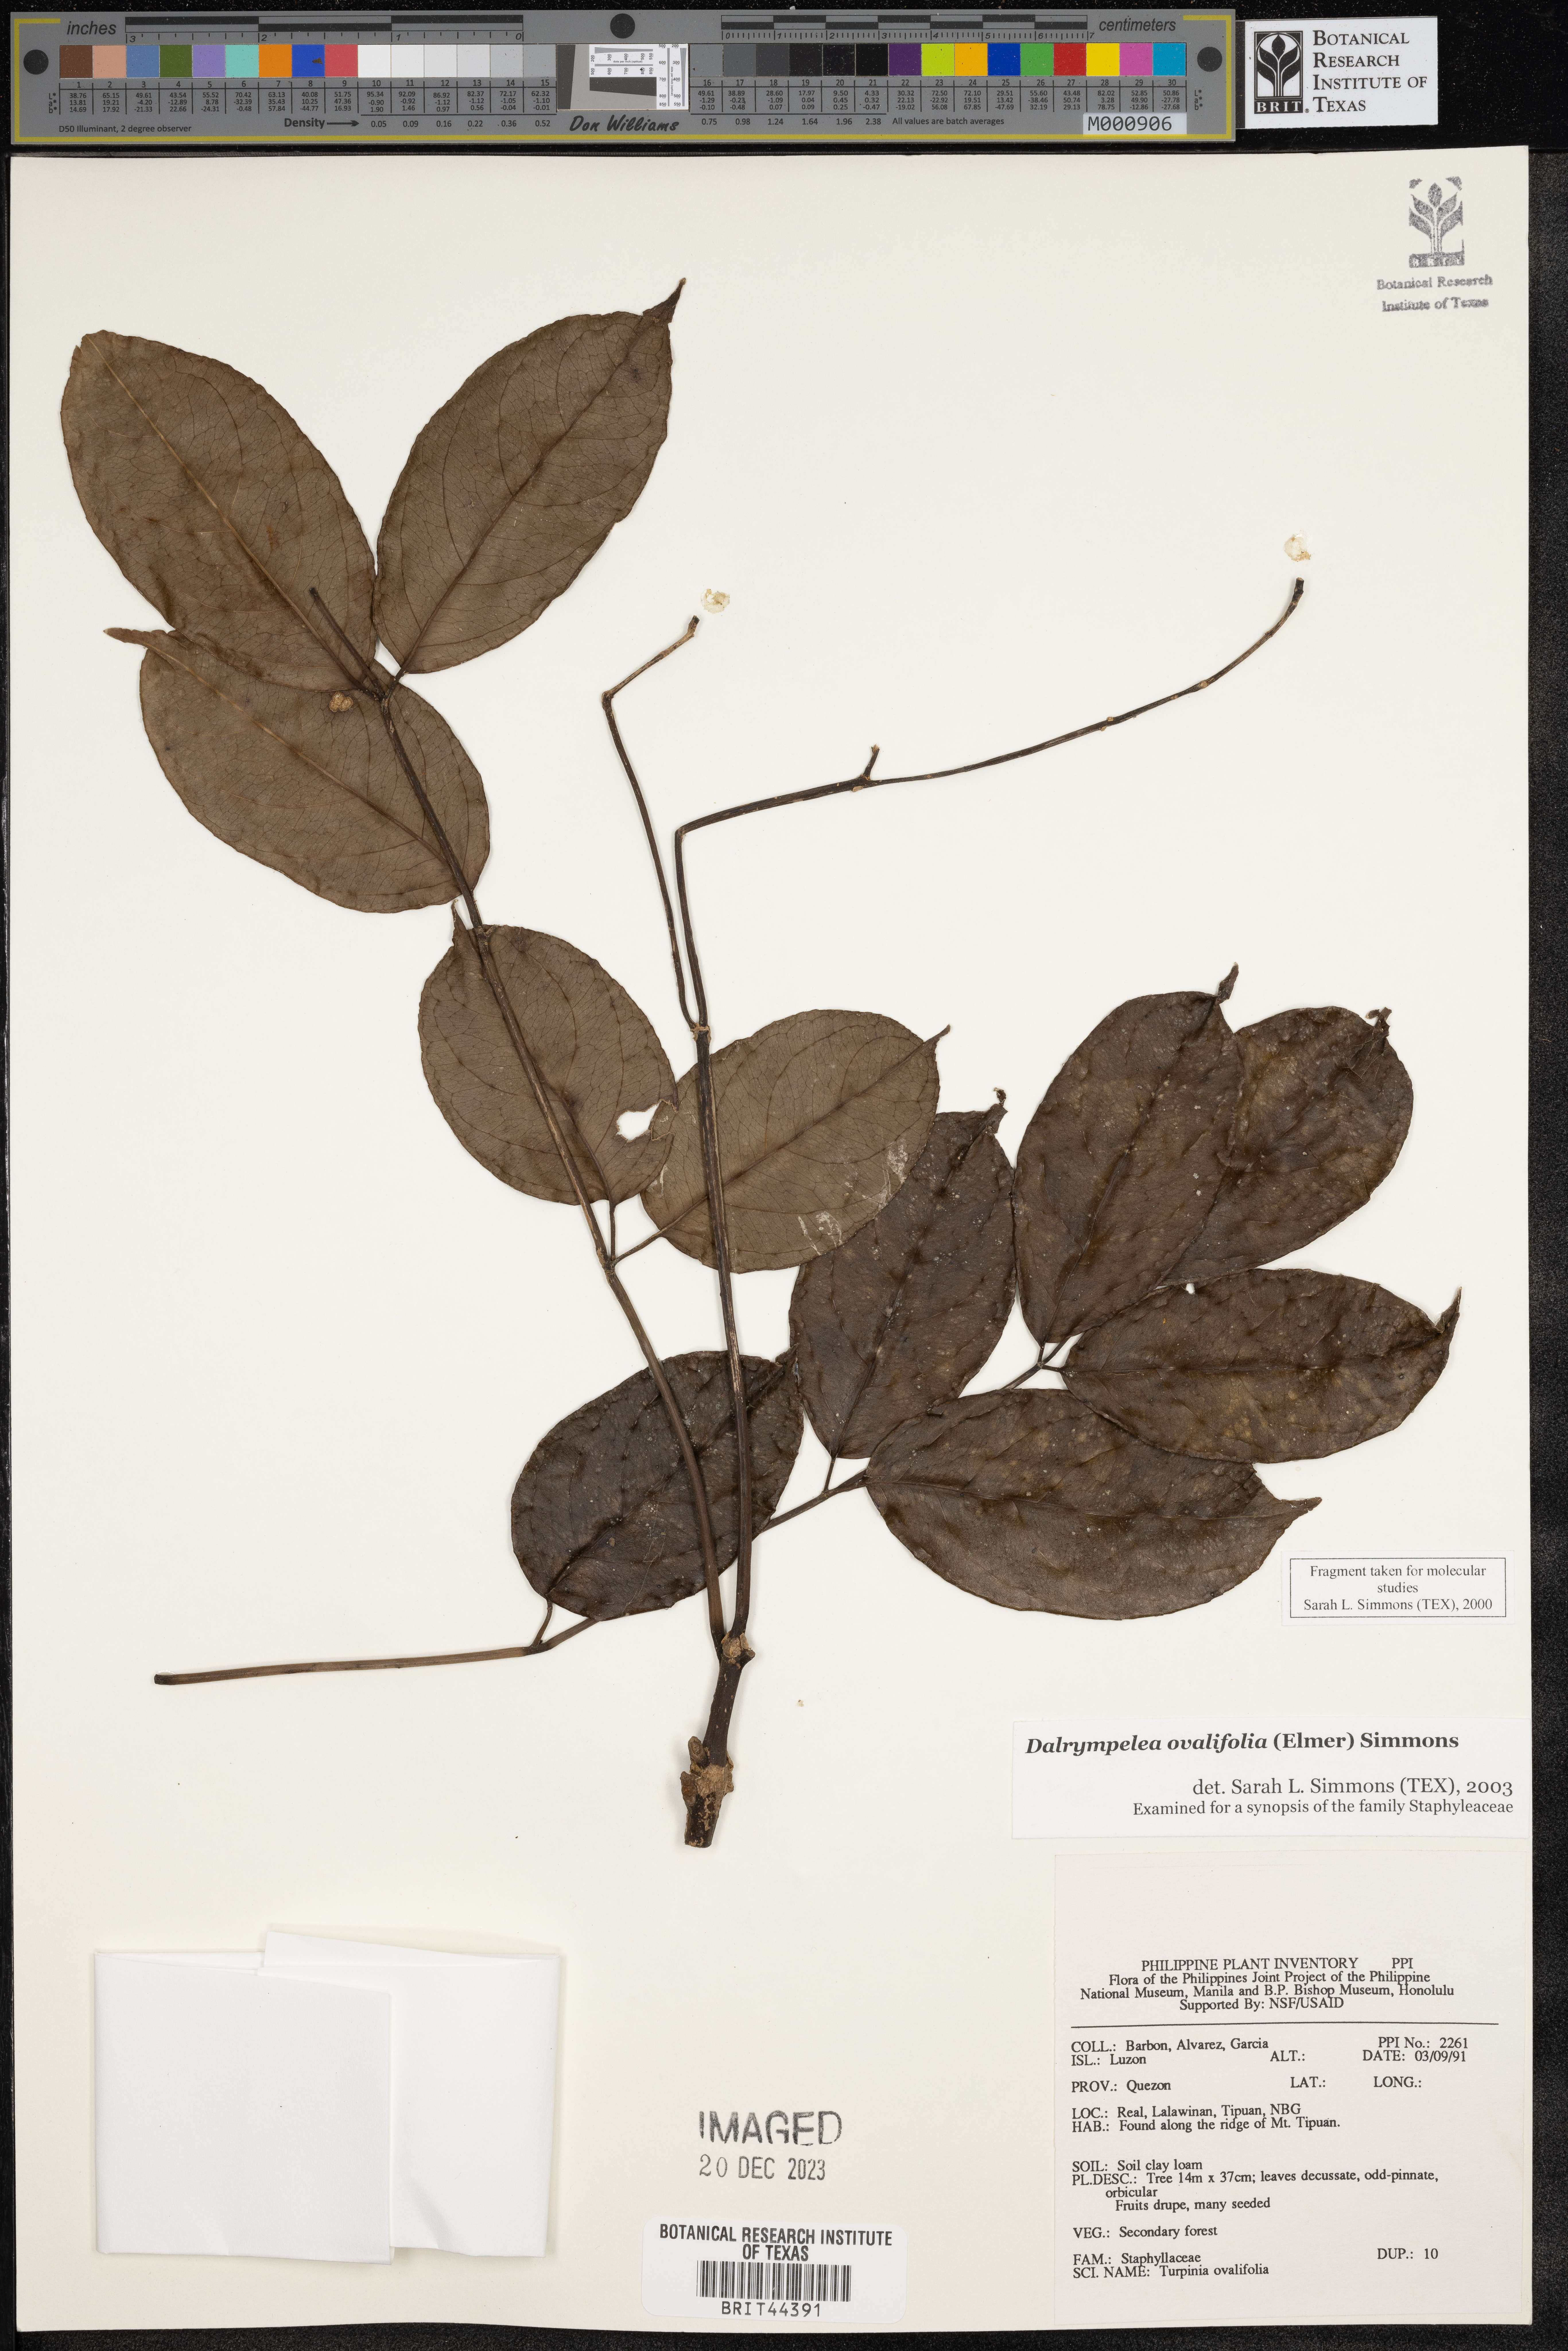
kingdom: Plantae
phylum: Tracheophyta
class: Magnoliopsida
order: Crossosomatales
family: Staphyleaceae
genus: Dalrympelea
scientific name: Dalrympelea
